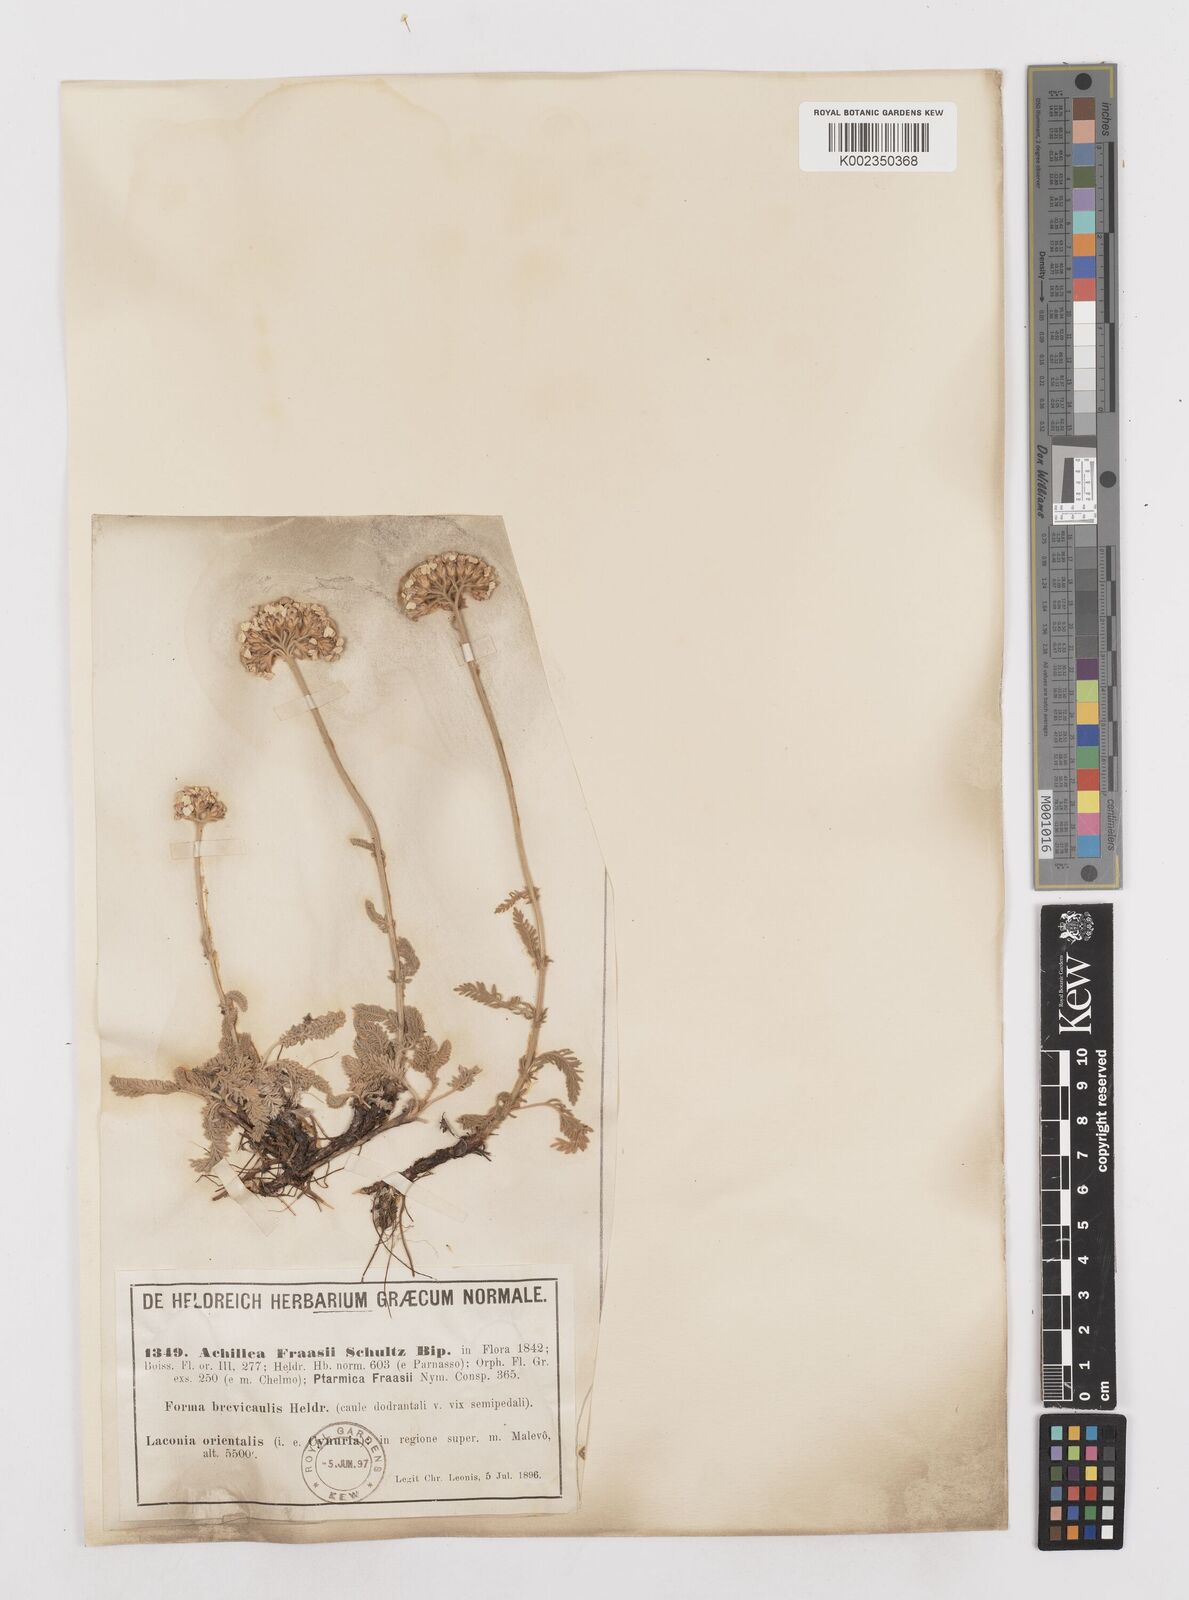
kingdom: Plantae
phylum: Tracheophyta
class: Magnoliopsida
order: Asterales
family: Asteraceae
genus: Achillea
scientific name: Achillea fraasii
